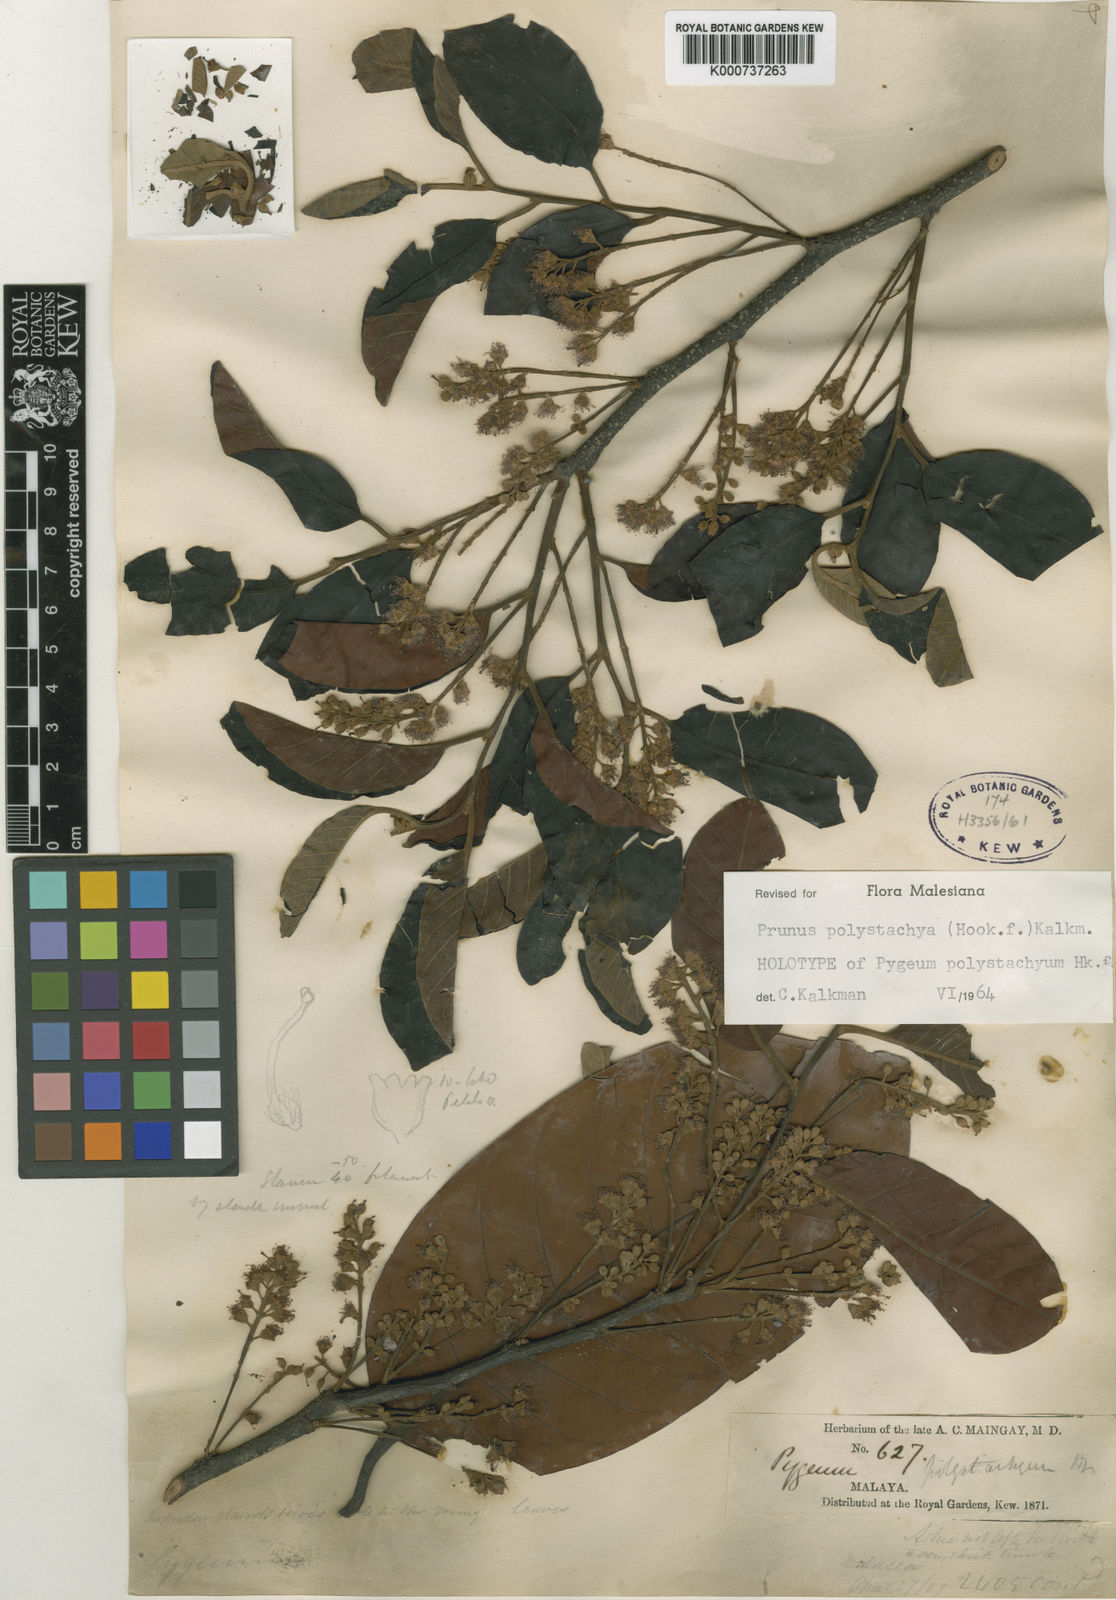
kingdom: Plantae
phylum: Tracheophyta
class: Magnoliopsida
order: Rosales
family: Rosaceae
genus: Prunus
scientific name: Prunus polystachya
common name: Bat laurel
